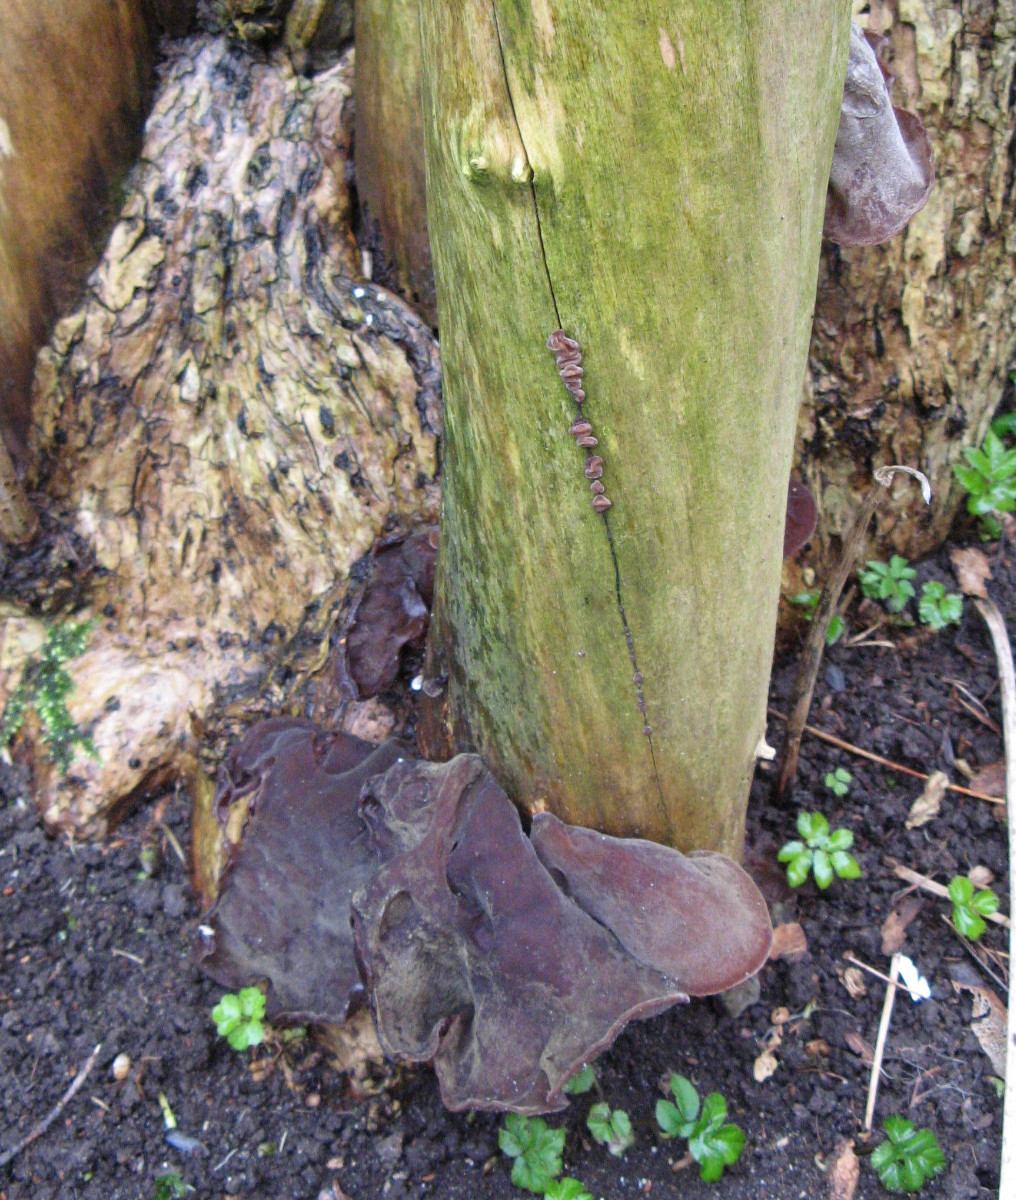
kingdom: Fungi
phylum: Basidiomycota
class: Agaricomycetes
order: Auriculariales
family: Auriculariaceae
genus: Auricularia
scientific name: Auricularia auricula-judae
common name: almindelig judasøre
